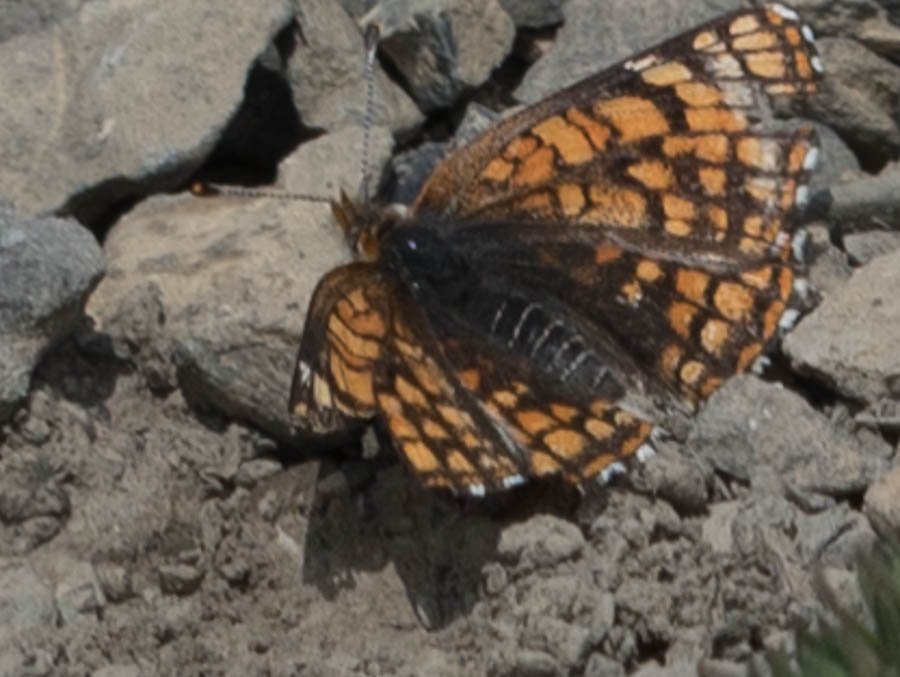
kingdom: Animalia
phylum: Arthropoda
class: Insecta
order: Lepidoptera
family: Nymphalidae
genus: Chlosyne
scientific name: Chlosyne damoetas
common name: Rockslide Checkerspot
